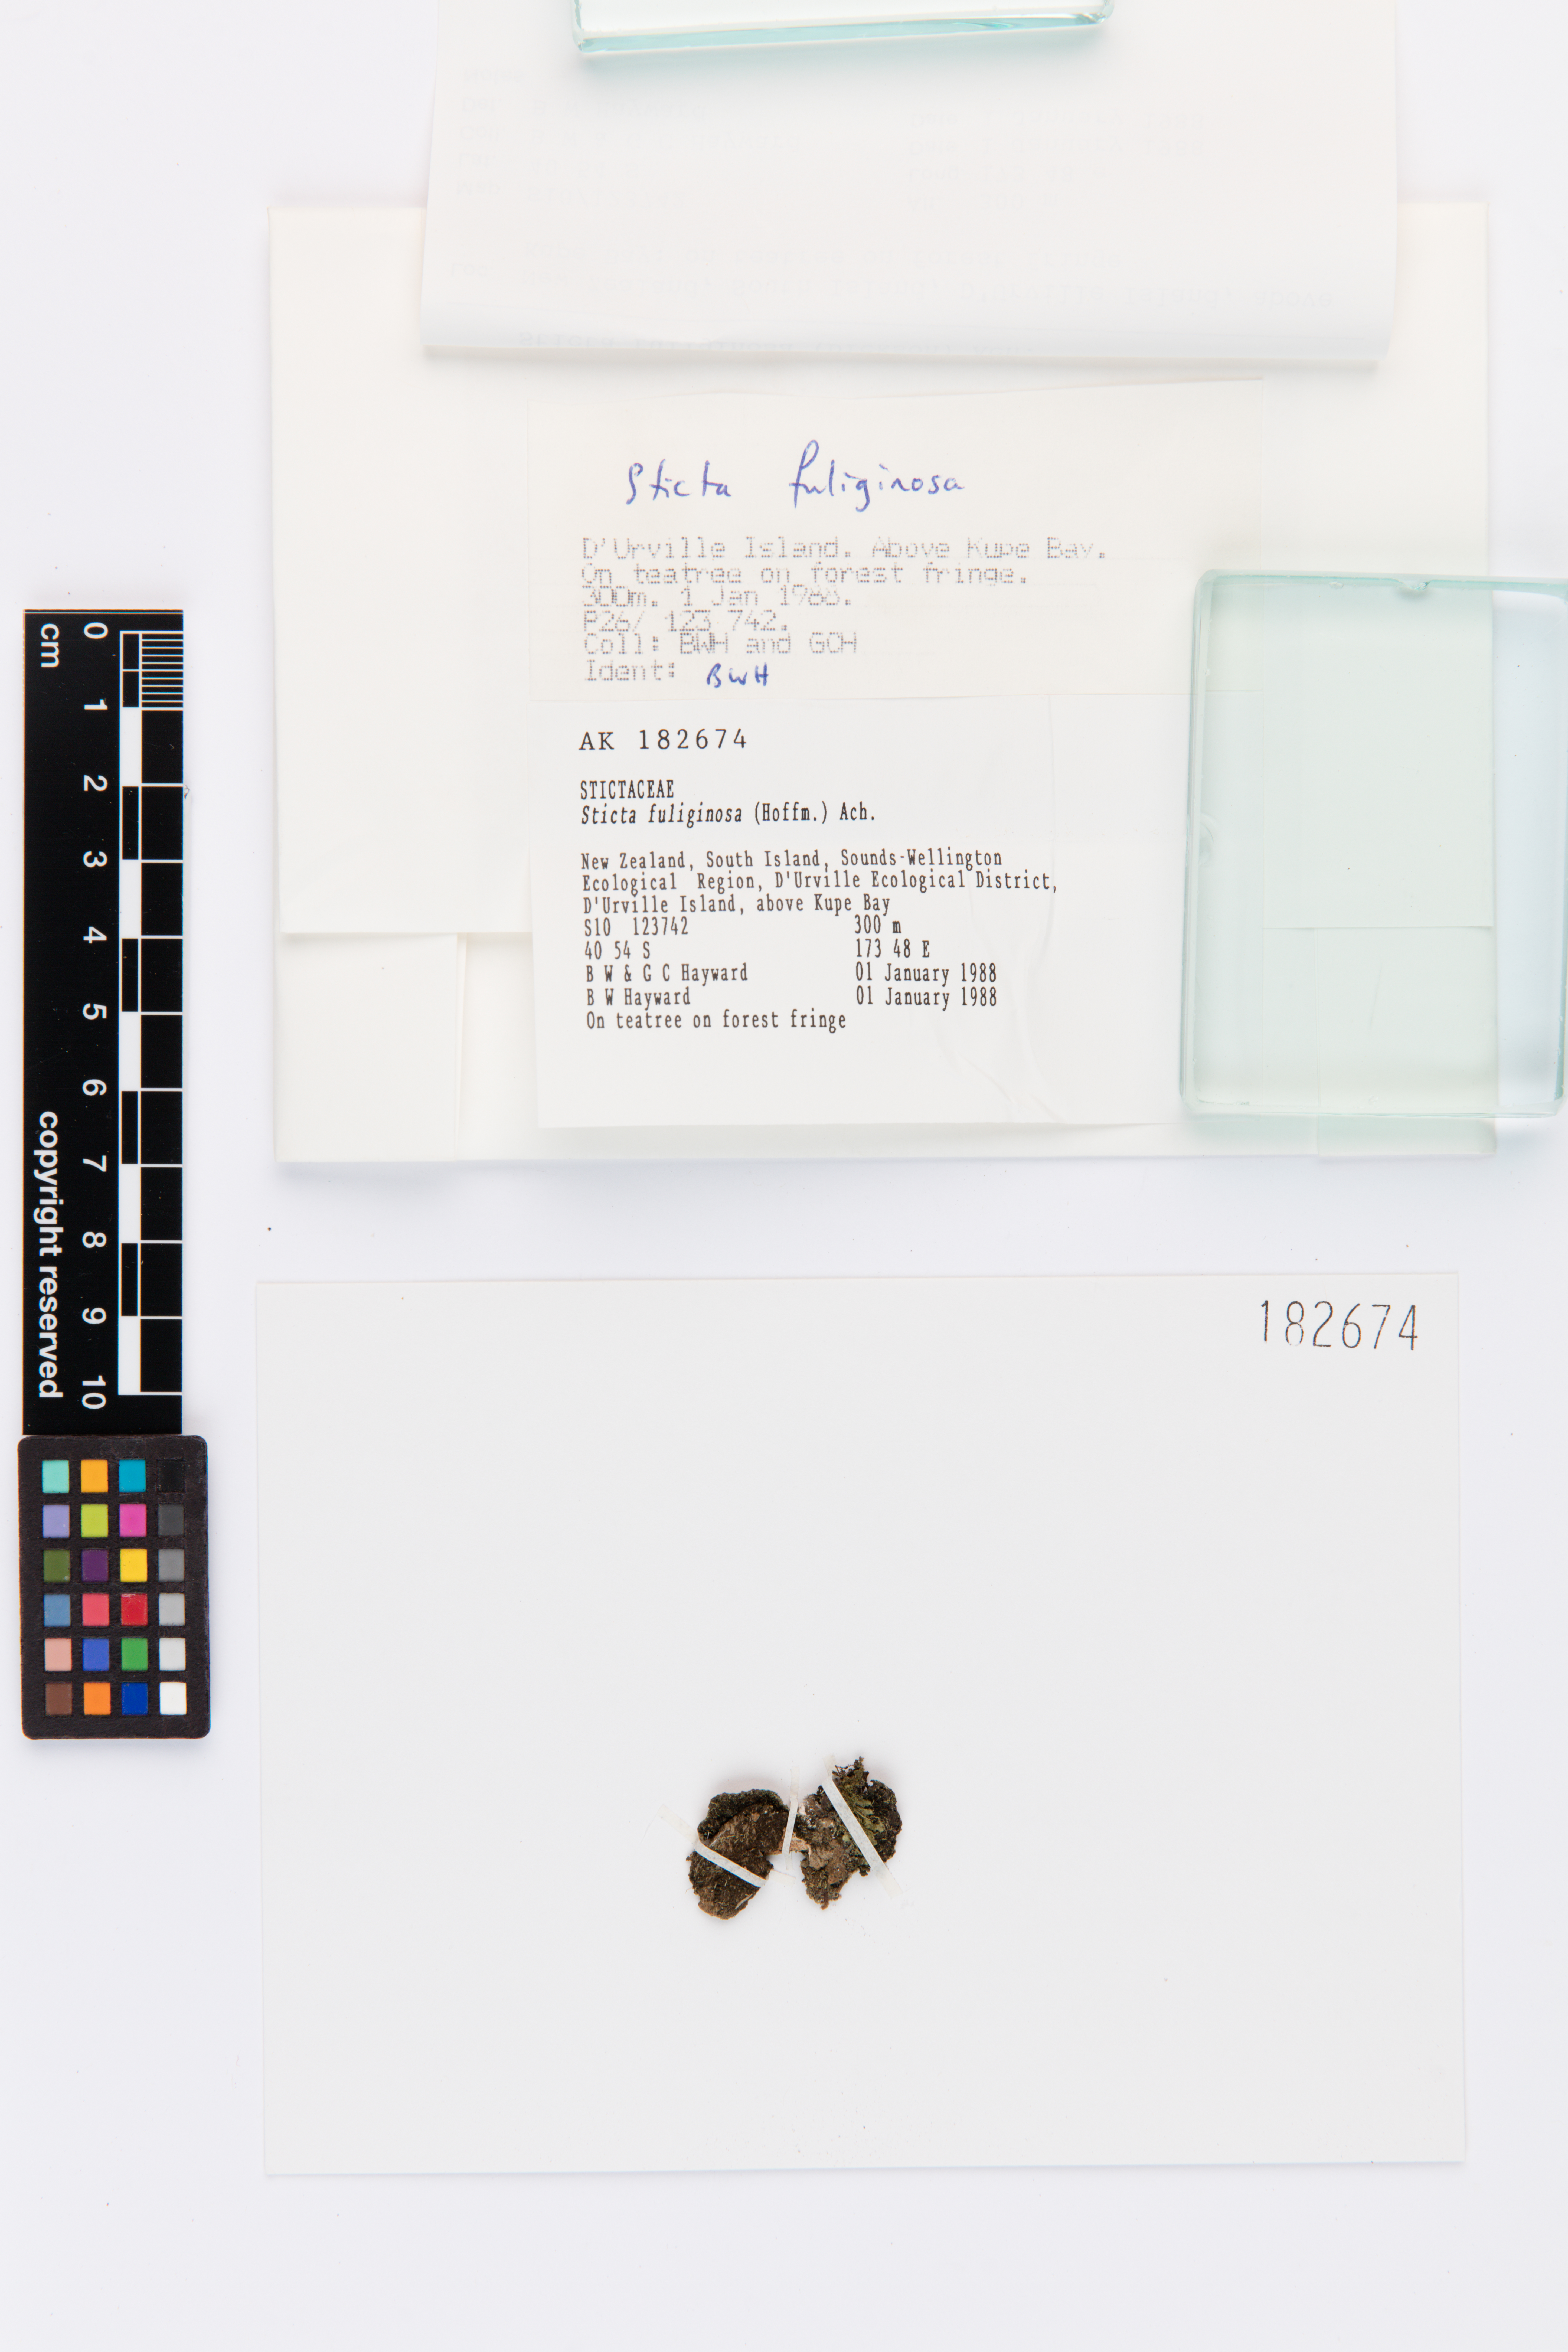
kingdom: Fungi
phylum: Ascomycota
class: Lecanoromycetes
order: Peltigerales
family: Lobariaceae
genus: Sticta
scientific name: Sticta fuliginosa
